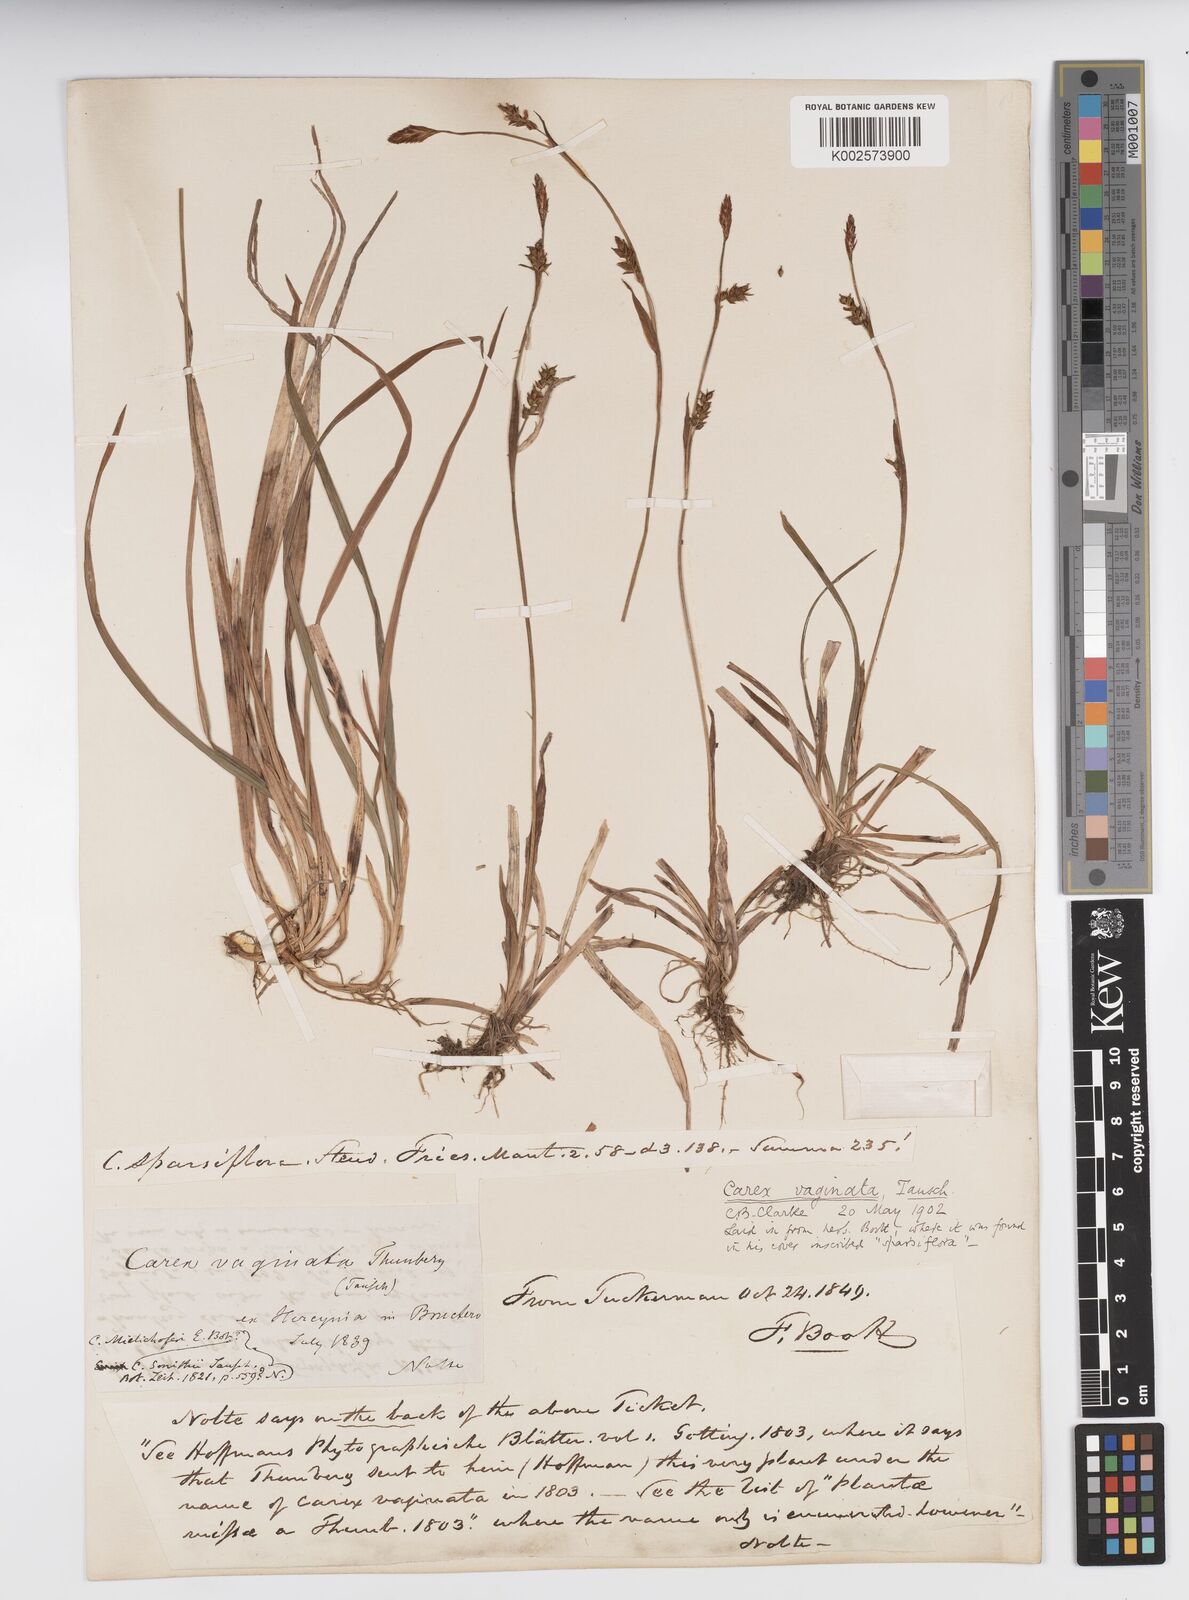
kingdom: Plantae
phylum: Tracheophyta
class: Liliopsida
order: Poales
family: Cyperaceae
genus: Carex
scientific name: Carex vaginata
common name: Sheathed sedge
